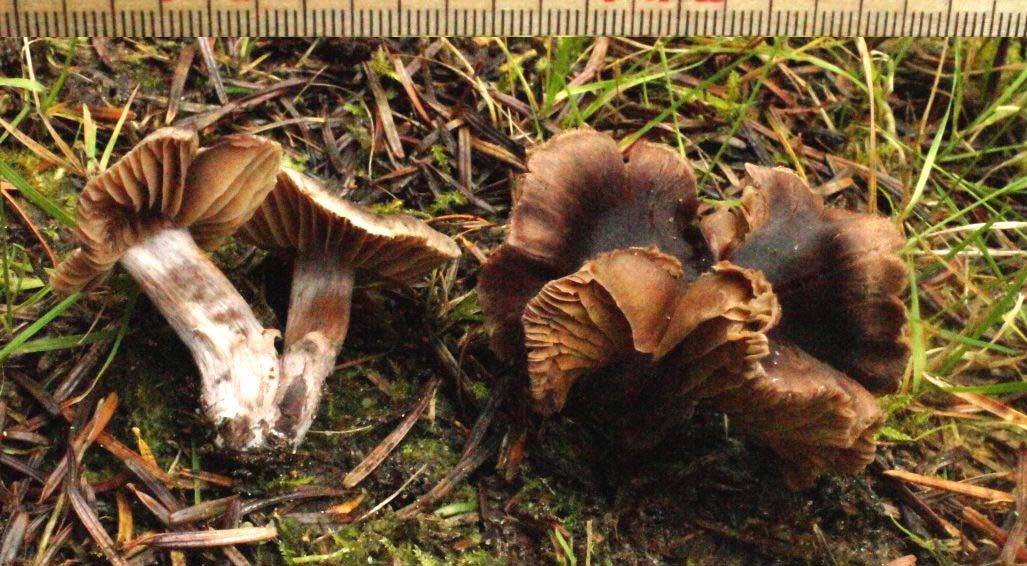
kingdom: Fungi
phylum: Basidiomycota
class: Agaricomycetes
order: Agaricales
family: Cortinariaceae
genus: Cortinarius
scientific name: Cortinarius vernus
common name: sommer-slørhat
